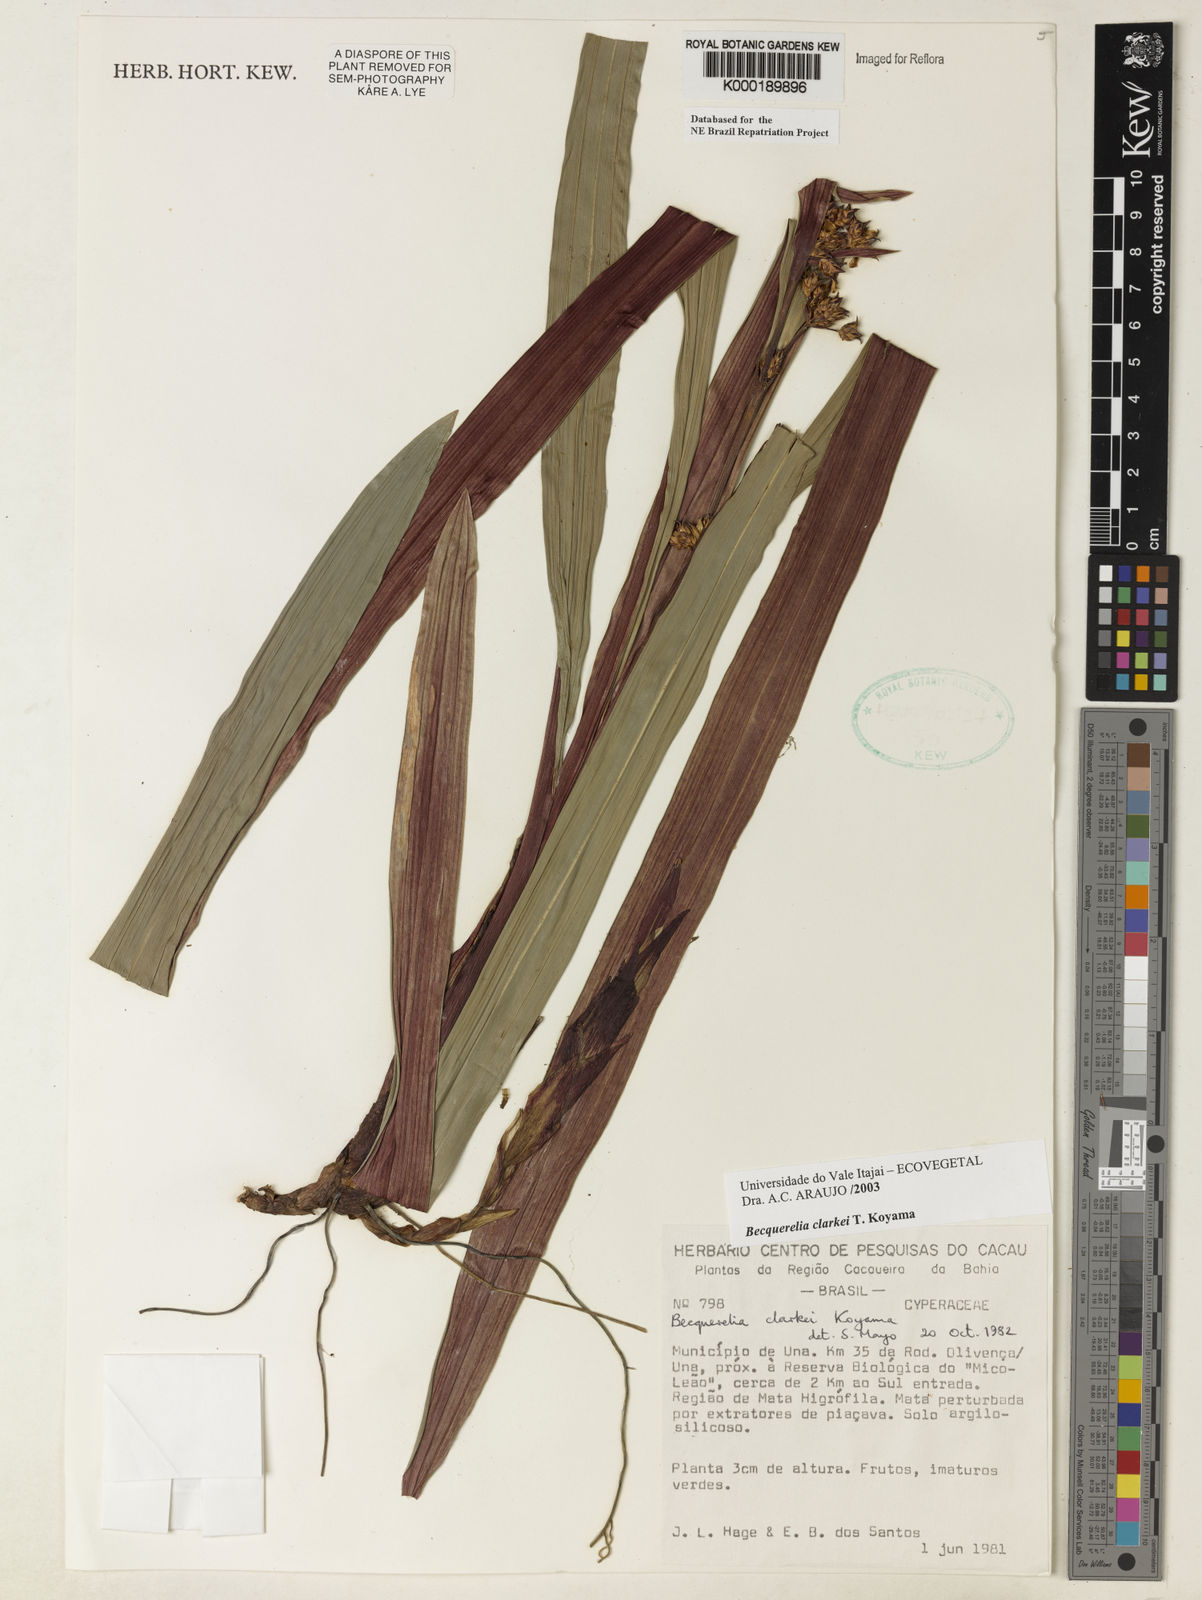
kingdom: Plantae
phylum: Tracheophyta
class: Liliopsida
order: Poales
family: Cyperaceae
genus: Becquerelia
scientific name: Becquerelia clarkei
